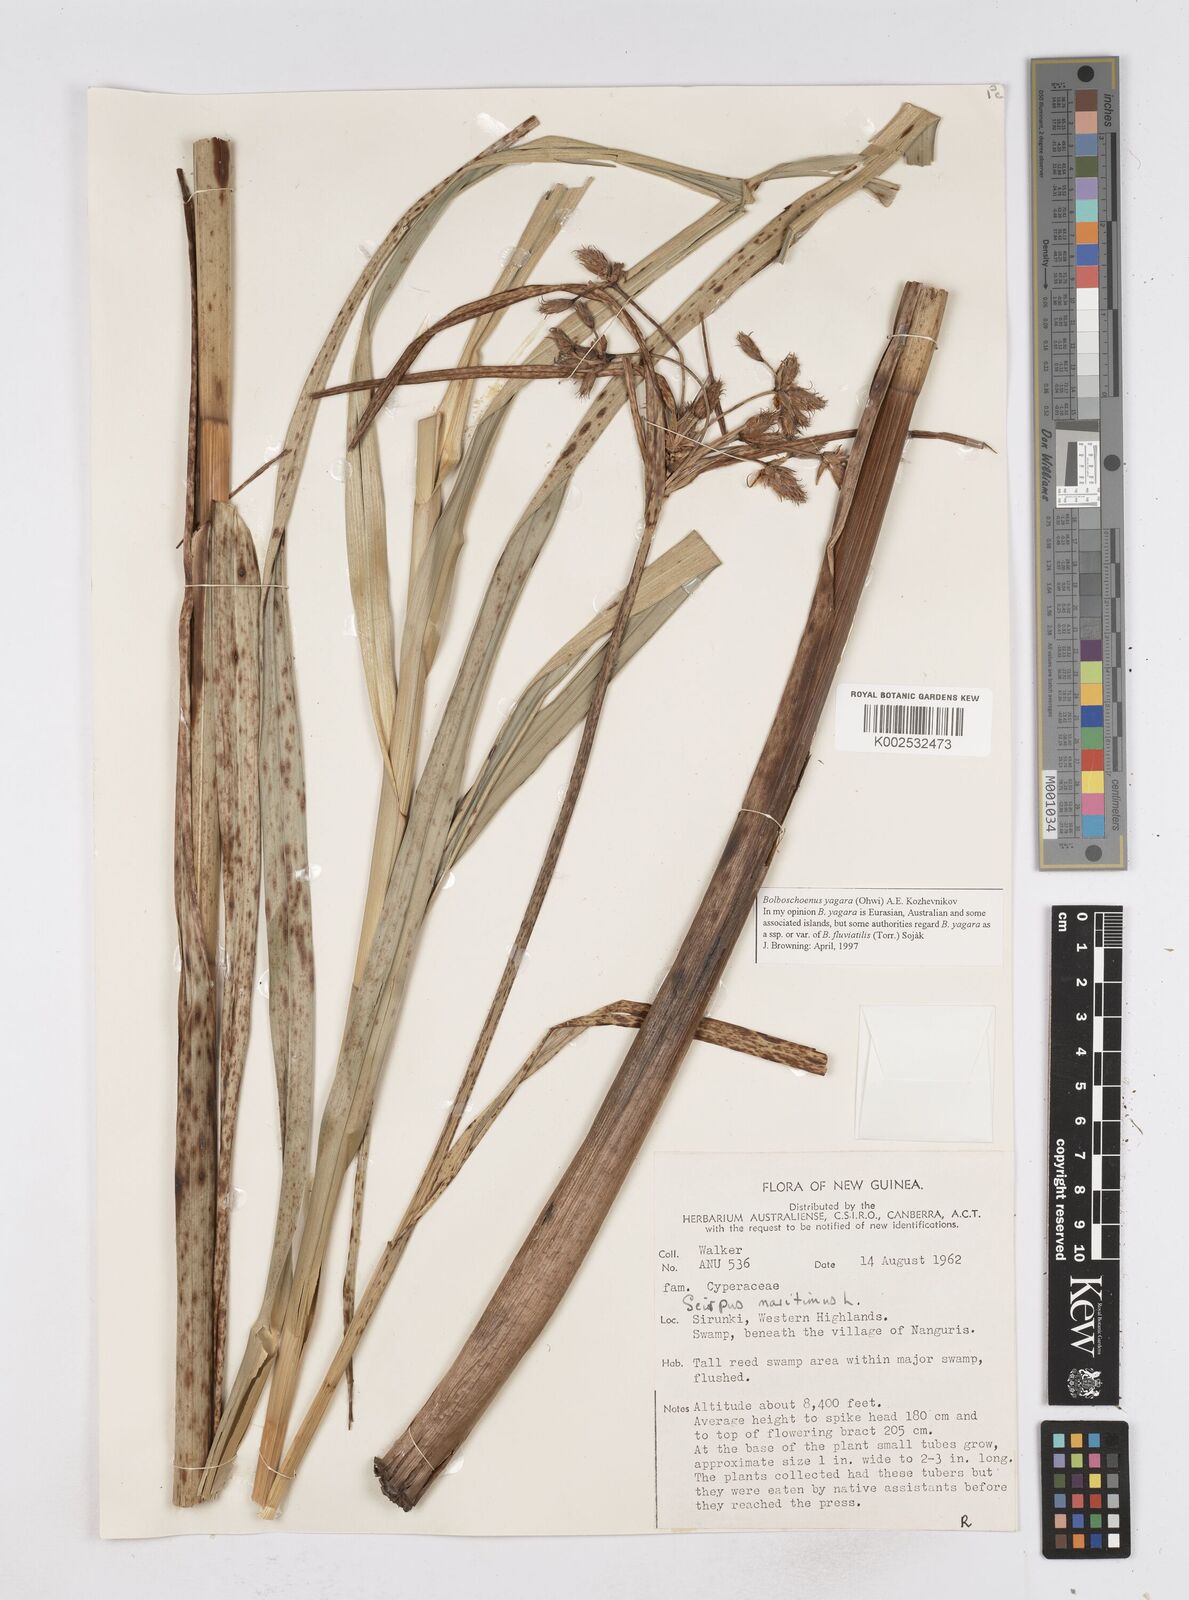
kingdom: Plantae
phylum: Tracheophyta
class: Liliopsida
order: Poales
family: Cyperaceae
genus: Bolboschoenus
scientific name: Bolboschoenus maritimus
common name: Sea club-rush
